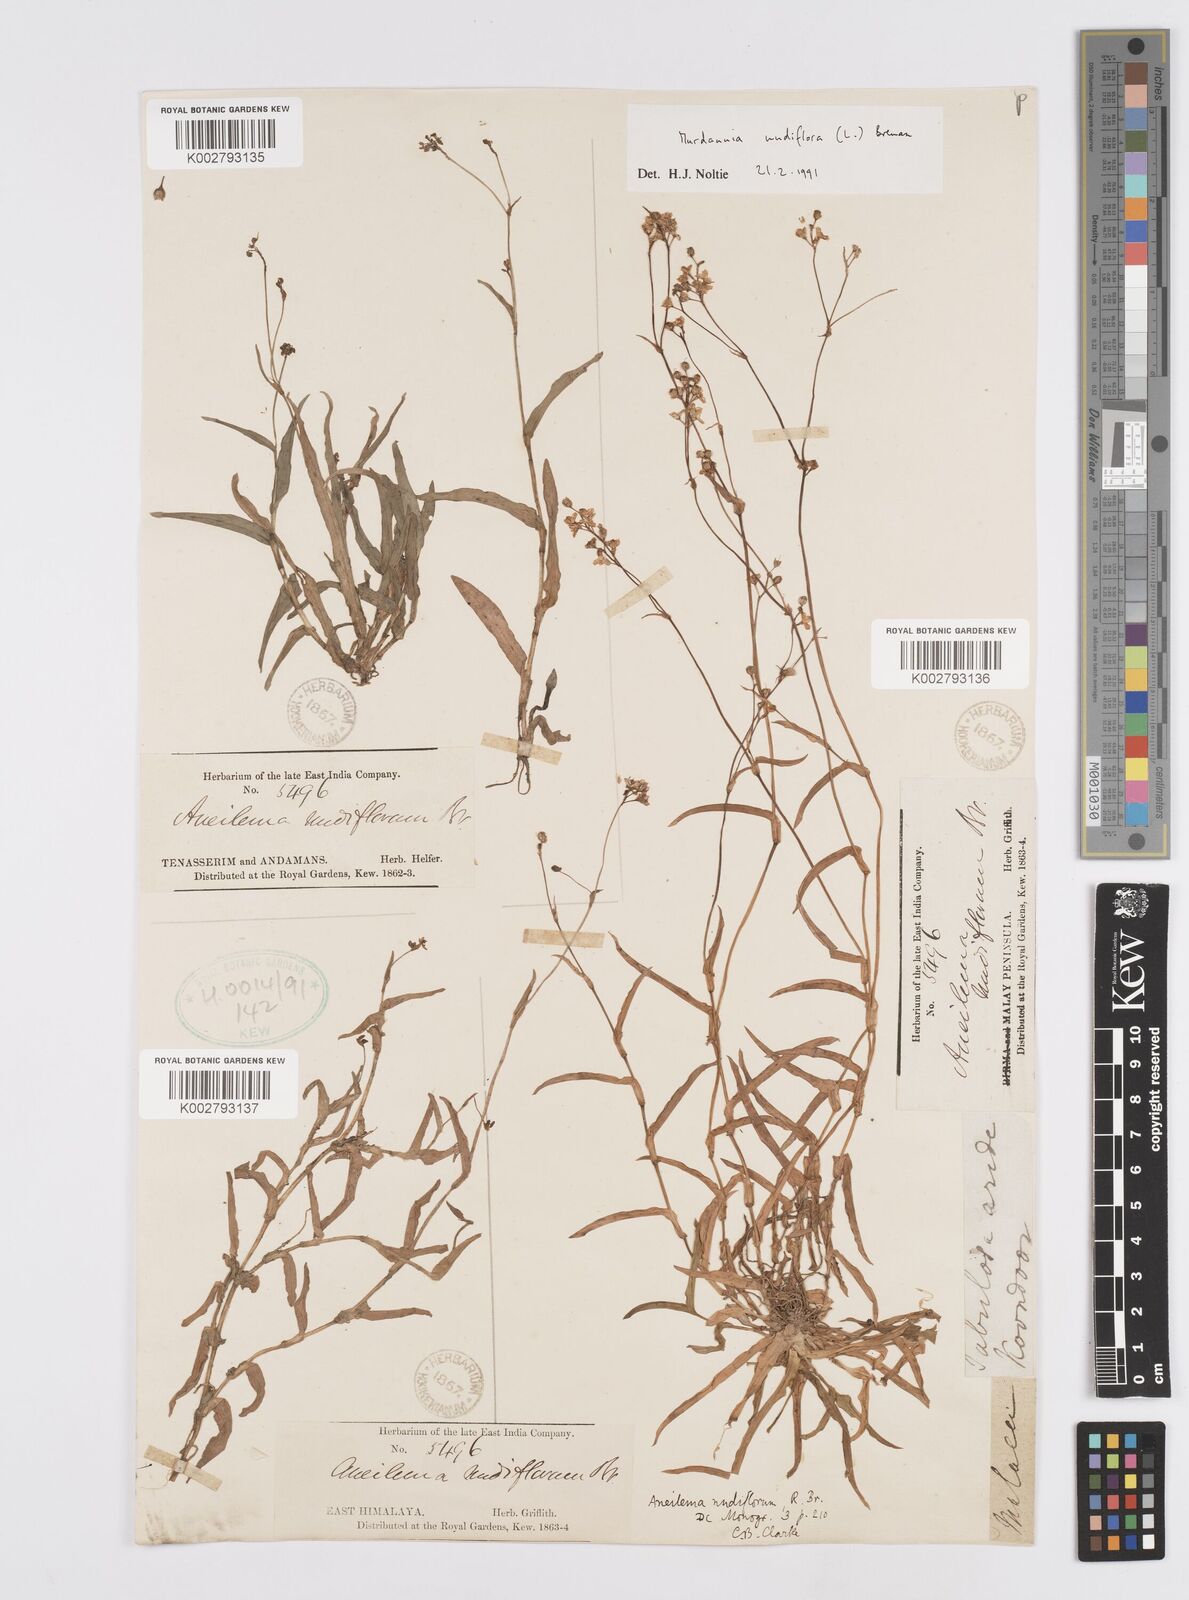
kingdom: Plantae
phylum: Tracheophyta
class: Liliopsida
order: Commelinales
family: Commelinaceae
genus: Murdannia
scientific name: Murdannia nudiflora
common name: Nakedstem dewflower
